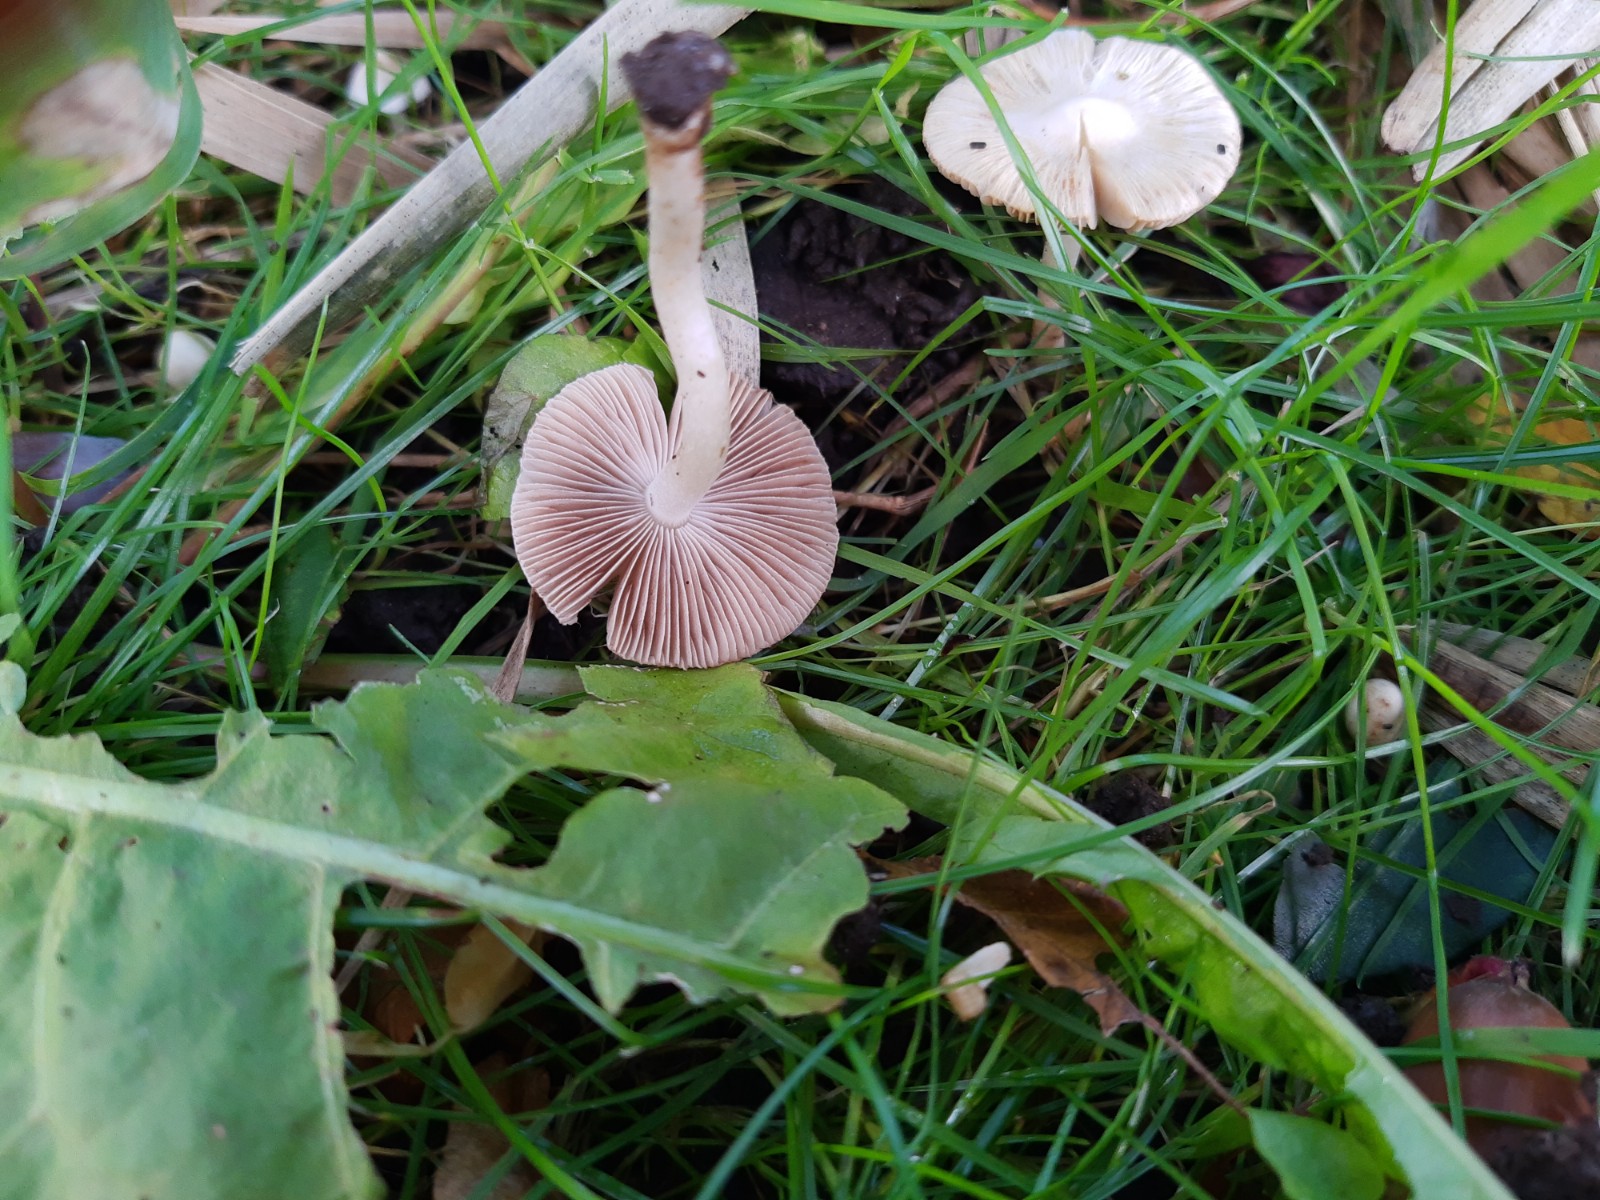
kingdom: Fungi
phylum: Basidiomycota
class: Agaricomycetes
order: Agaricales
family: Inocybaceae
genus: Inocybe
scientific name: Inocybe
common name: almindelig trævlhat
